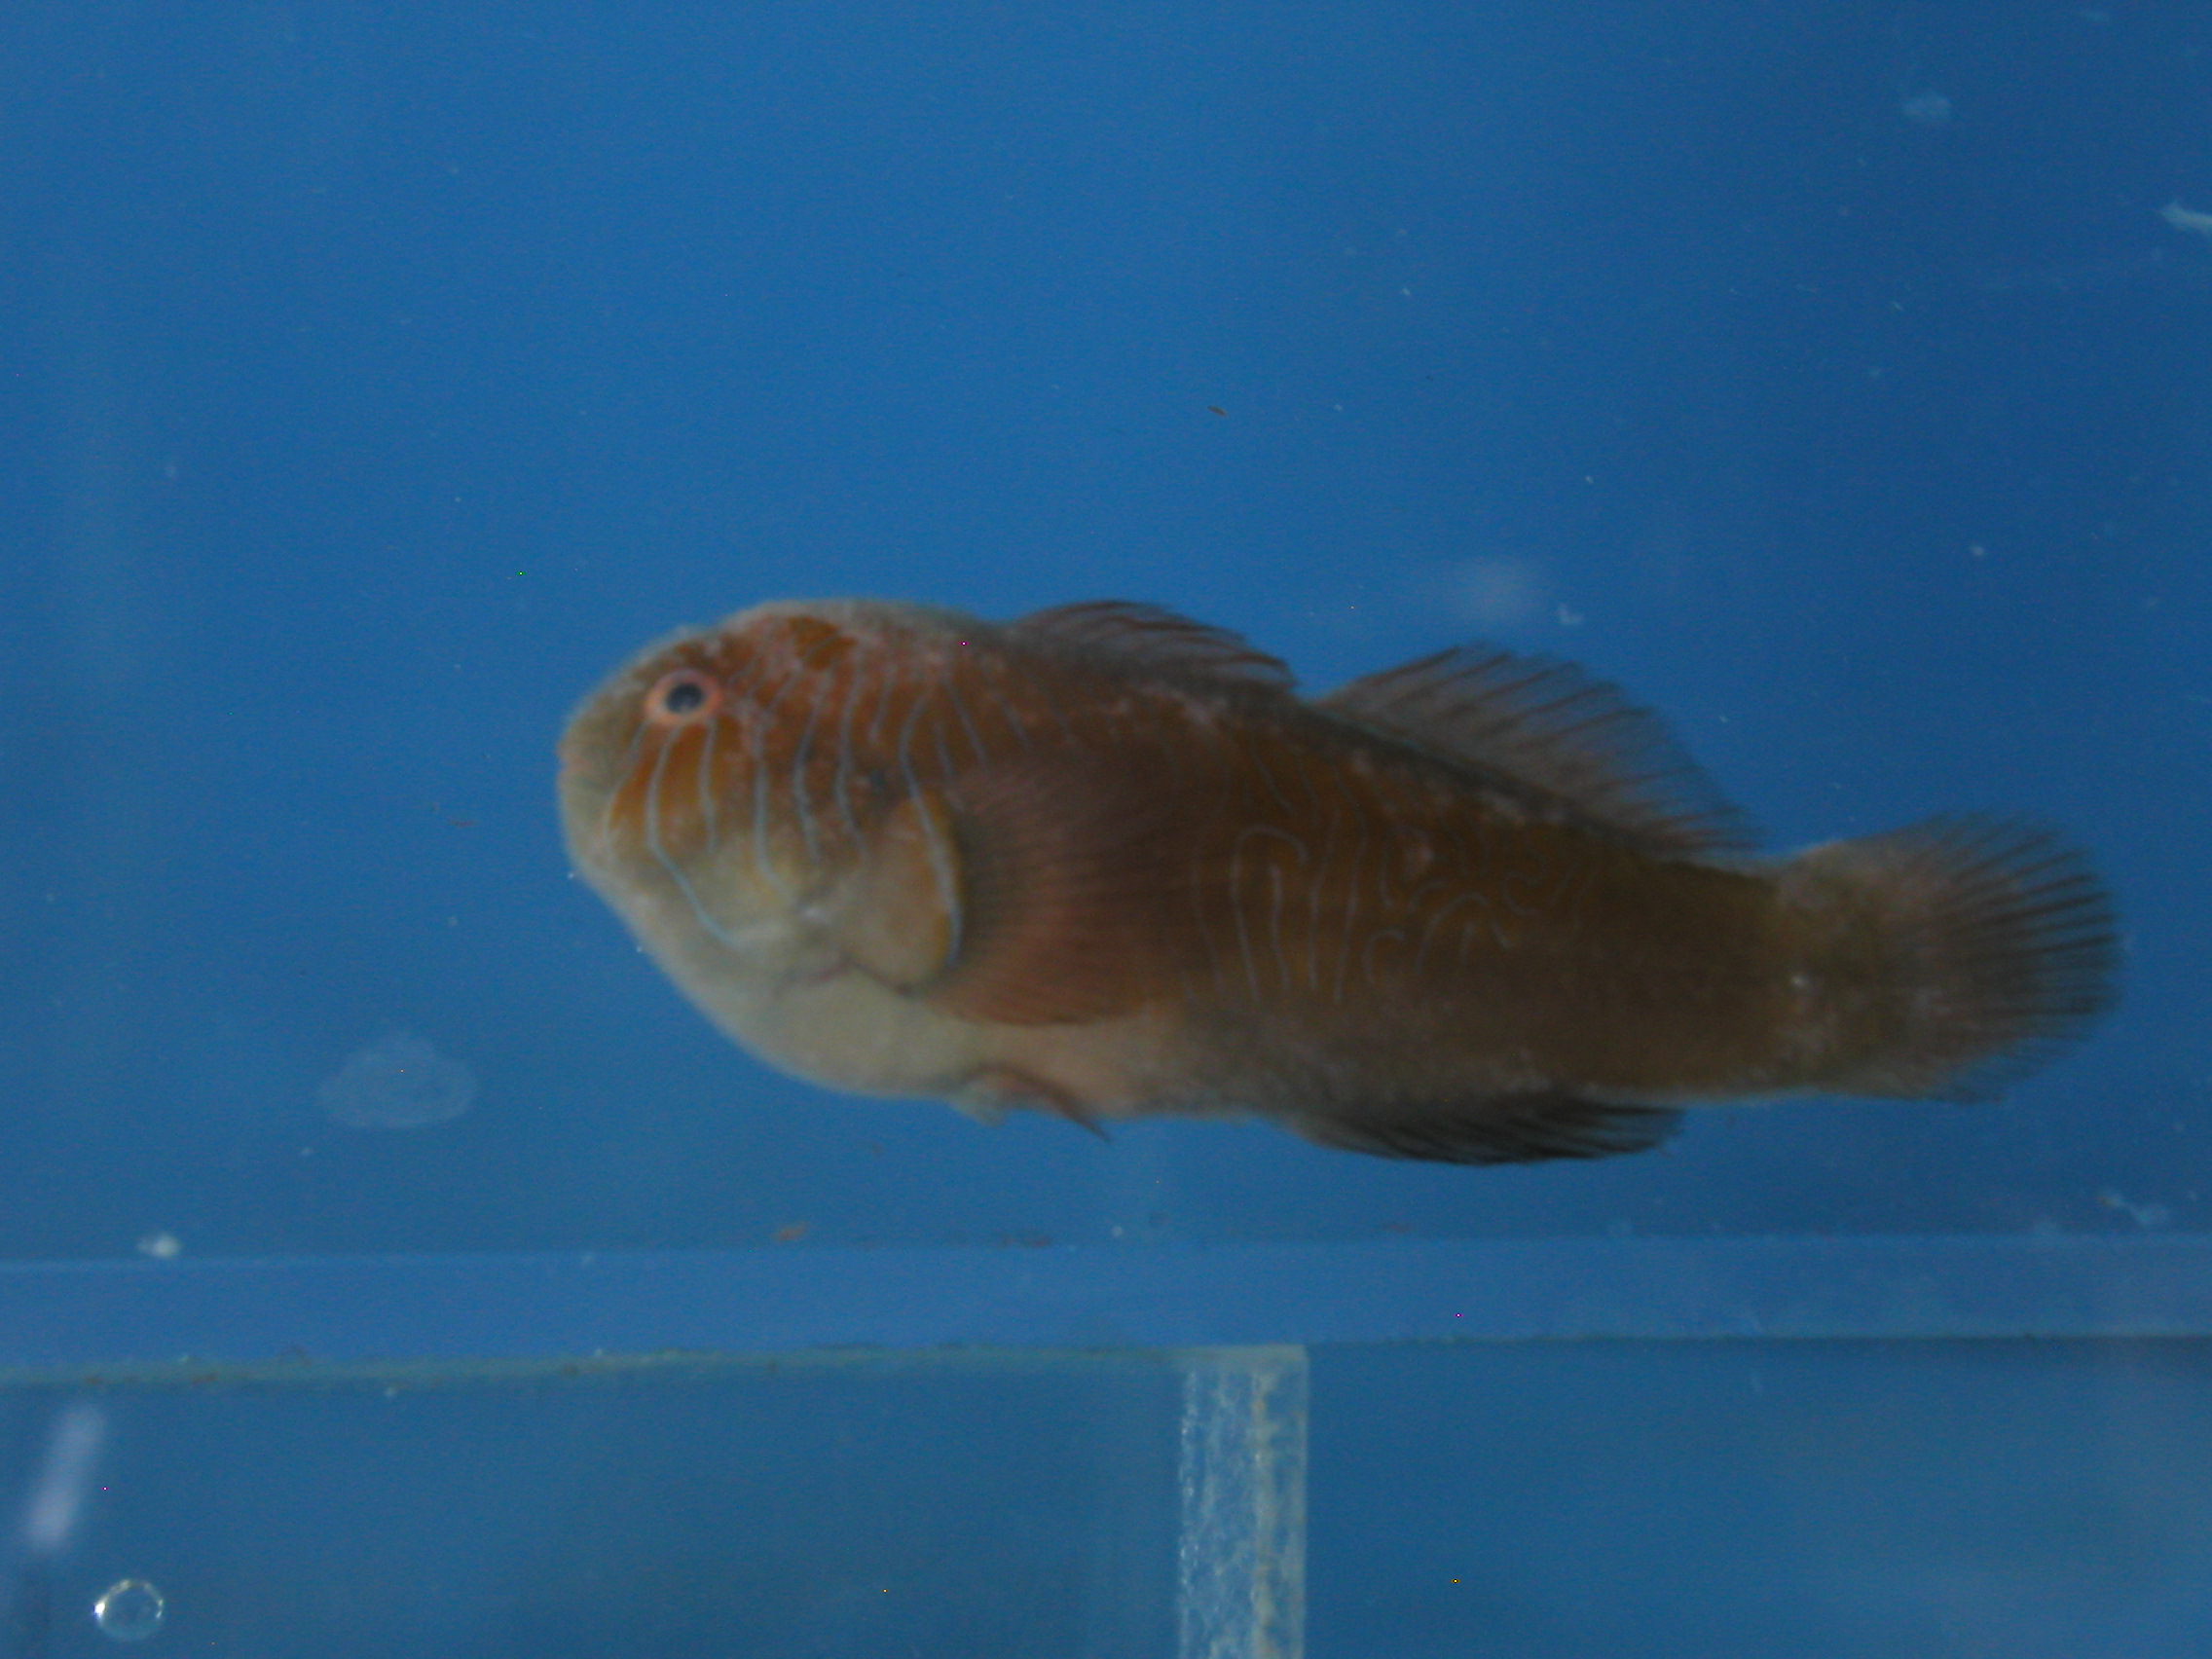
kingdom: Animalia
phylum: Chordata
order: Perciformes
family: Gobiidae
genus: Gobiodon
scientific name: Gobiodon rivulatus
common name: Rippled coralgoby
